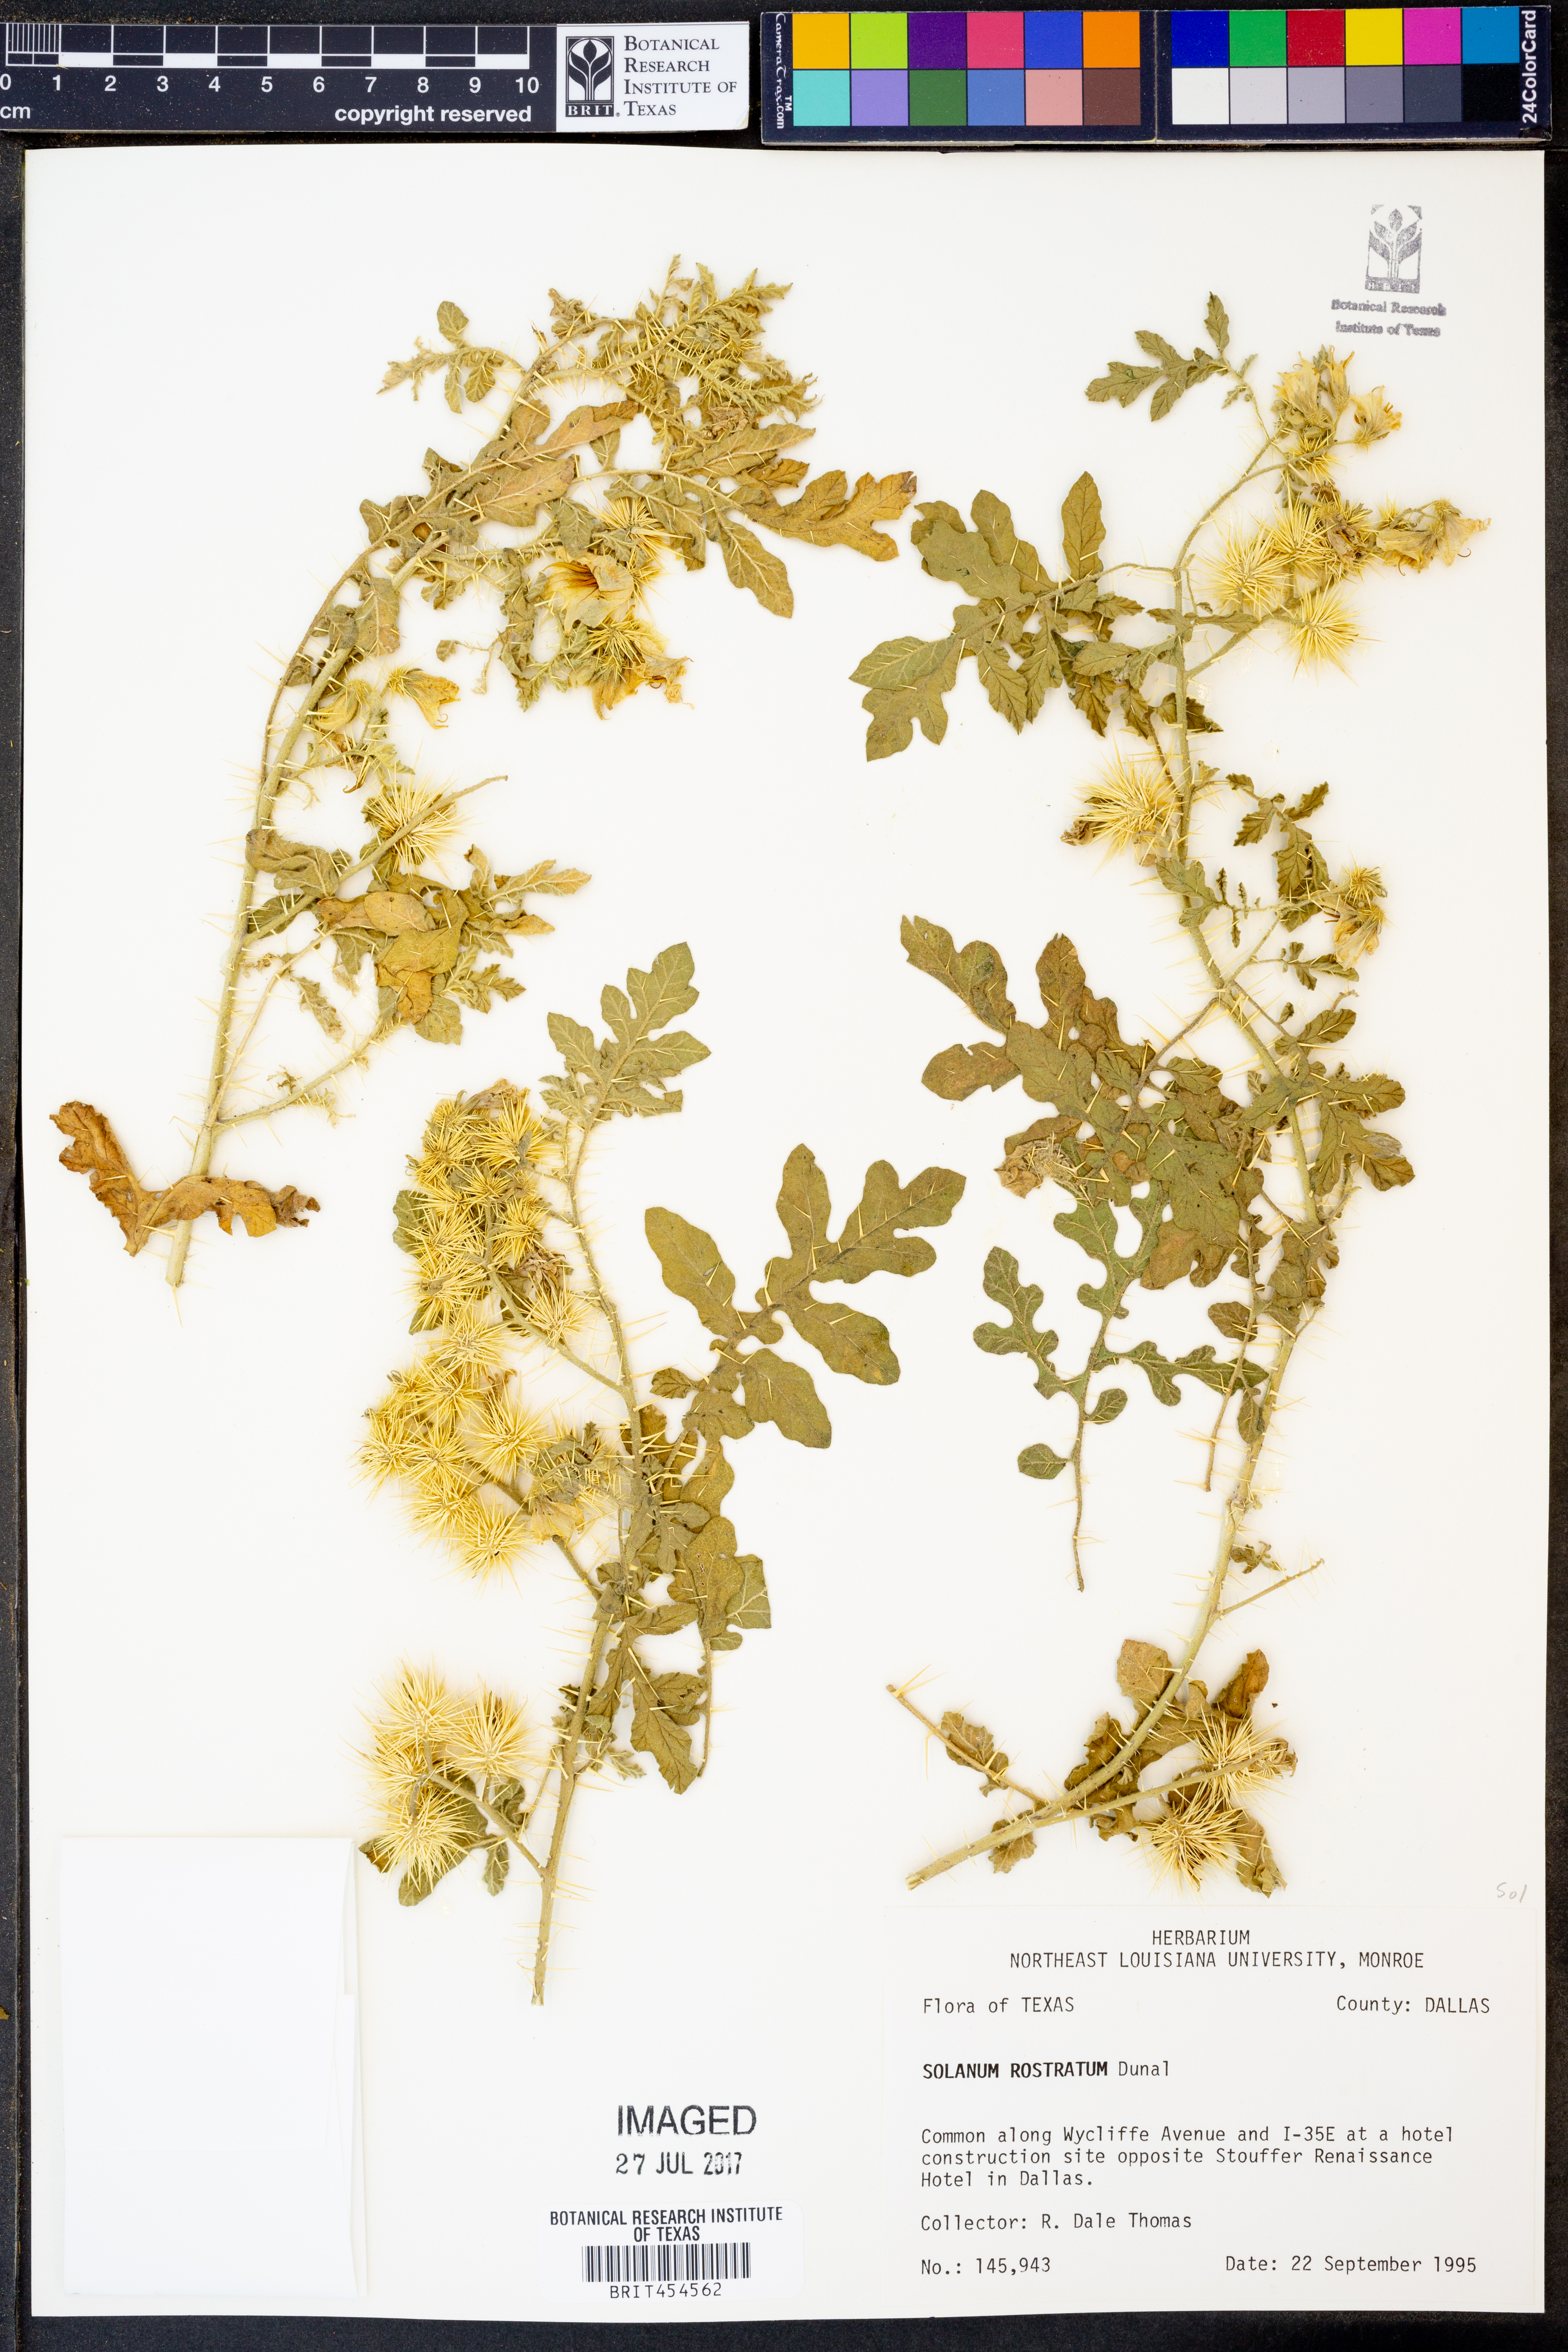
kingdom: Plantae
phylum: Tracheophyta
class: Magnoliopsida
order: Solanales
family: Solanaceae
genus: Solanum
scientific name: Solanum angustifolium
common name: Buffalobur nightshade
